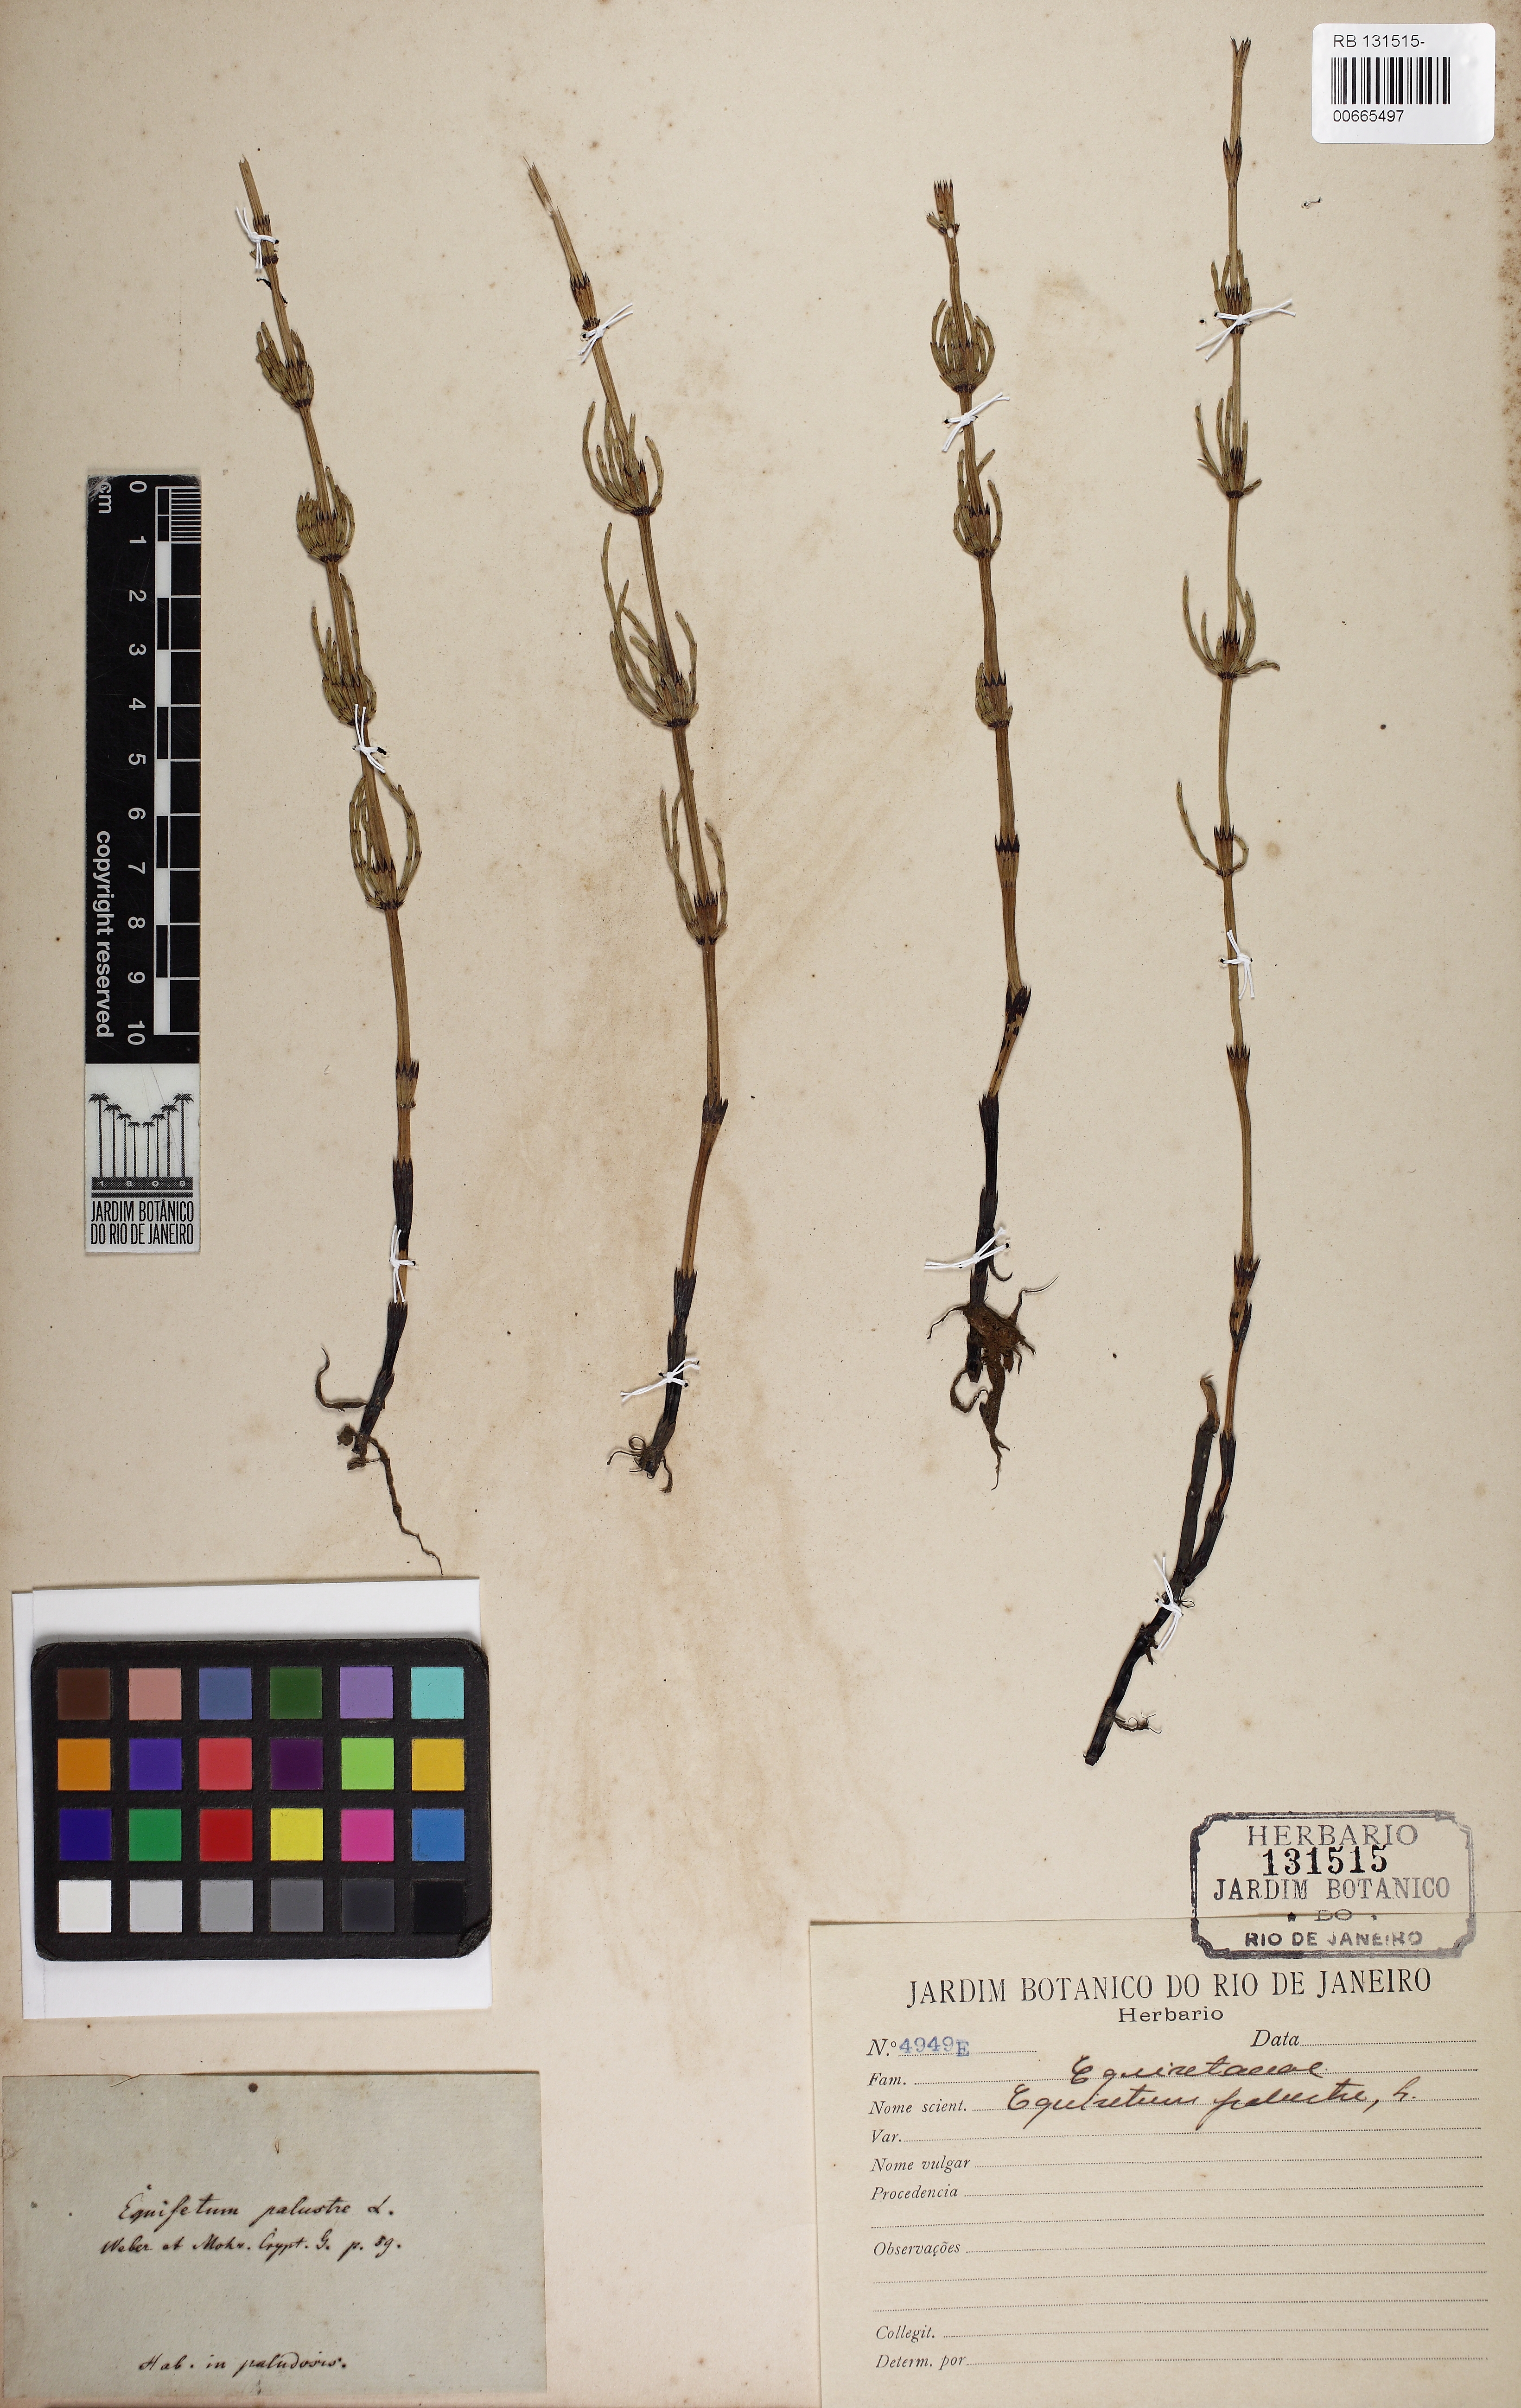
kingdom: Plantae
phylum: Tracheophyta
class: Polypodiopsida
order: Equisetales
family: Equisetaceae
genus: Equisetum
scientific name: Equisetum palustre
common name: Marsh horsetail
